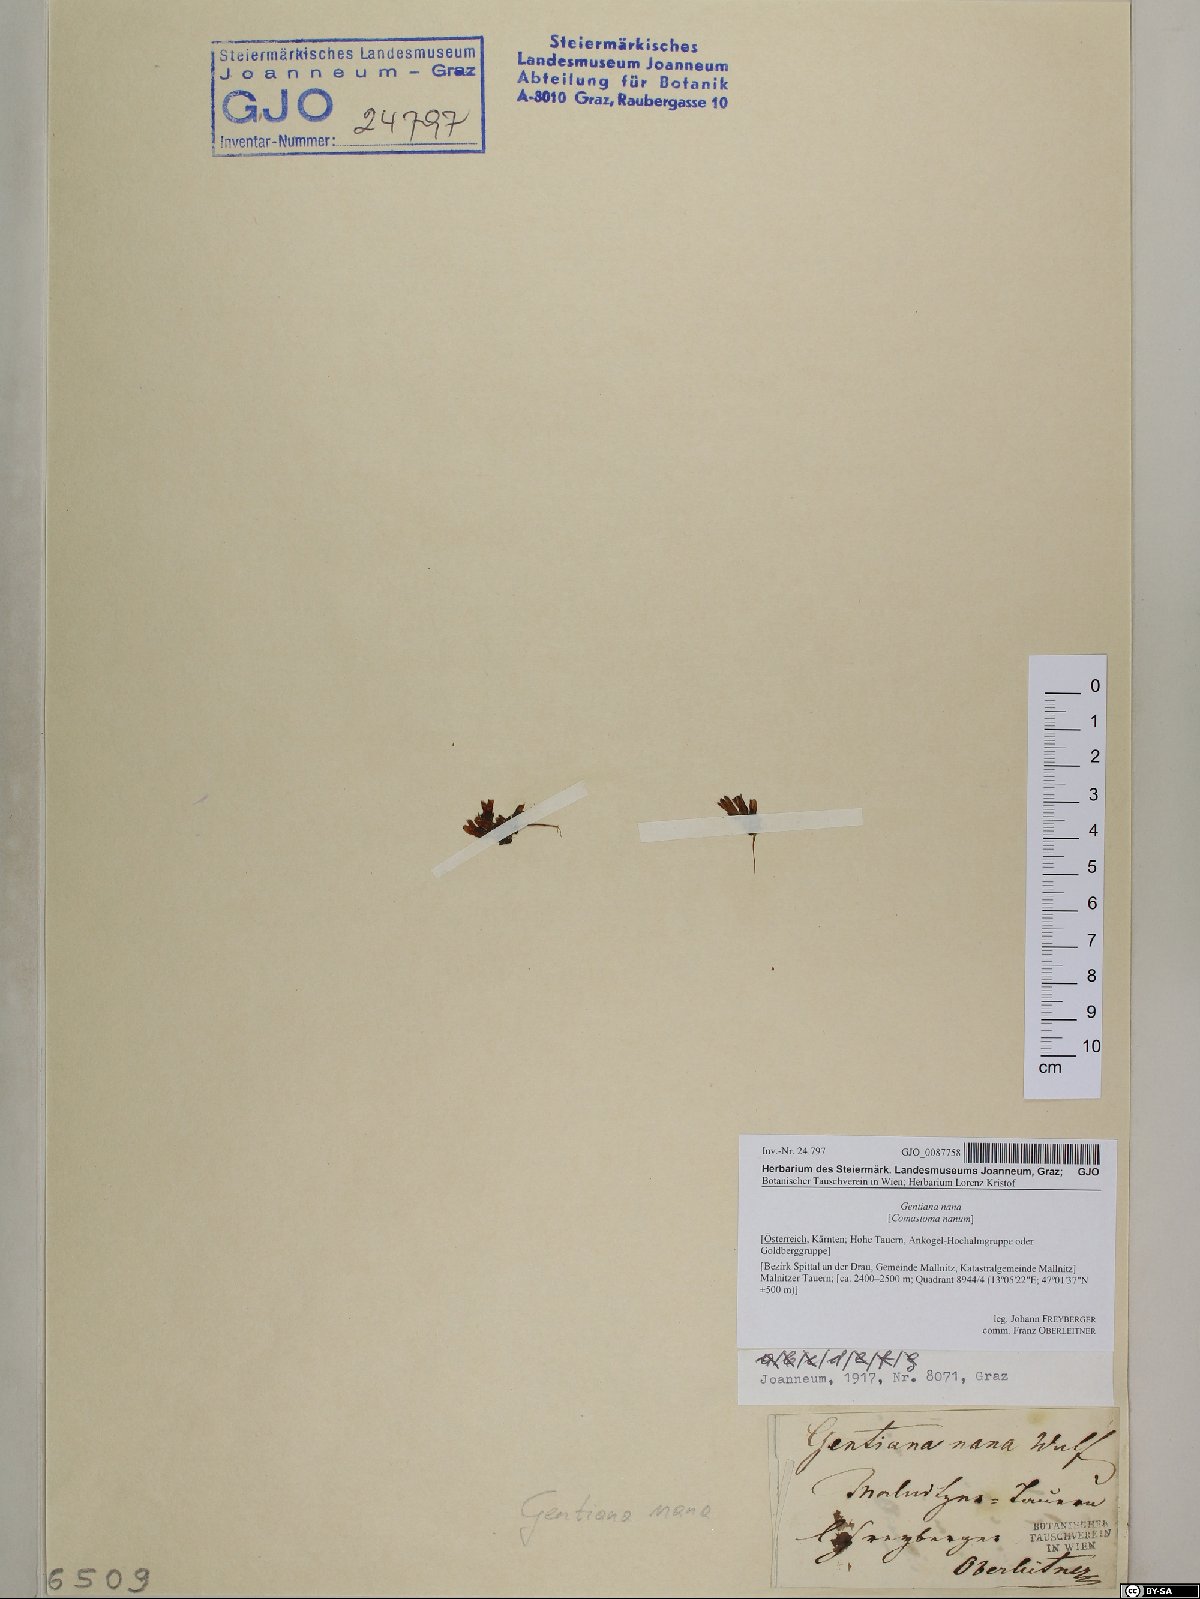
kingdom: Plantae
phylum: Tracheophyta
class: Magnoliopsida
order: Gentianales
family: Gentianaceae
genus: Comastoma
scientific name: Comastoma nanum
